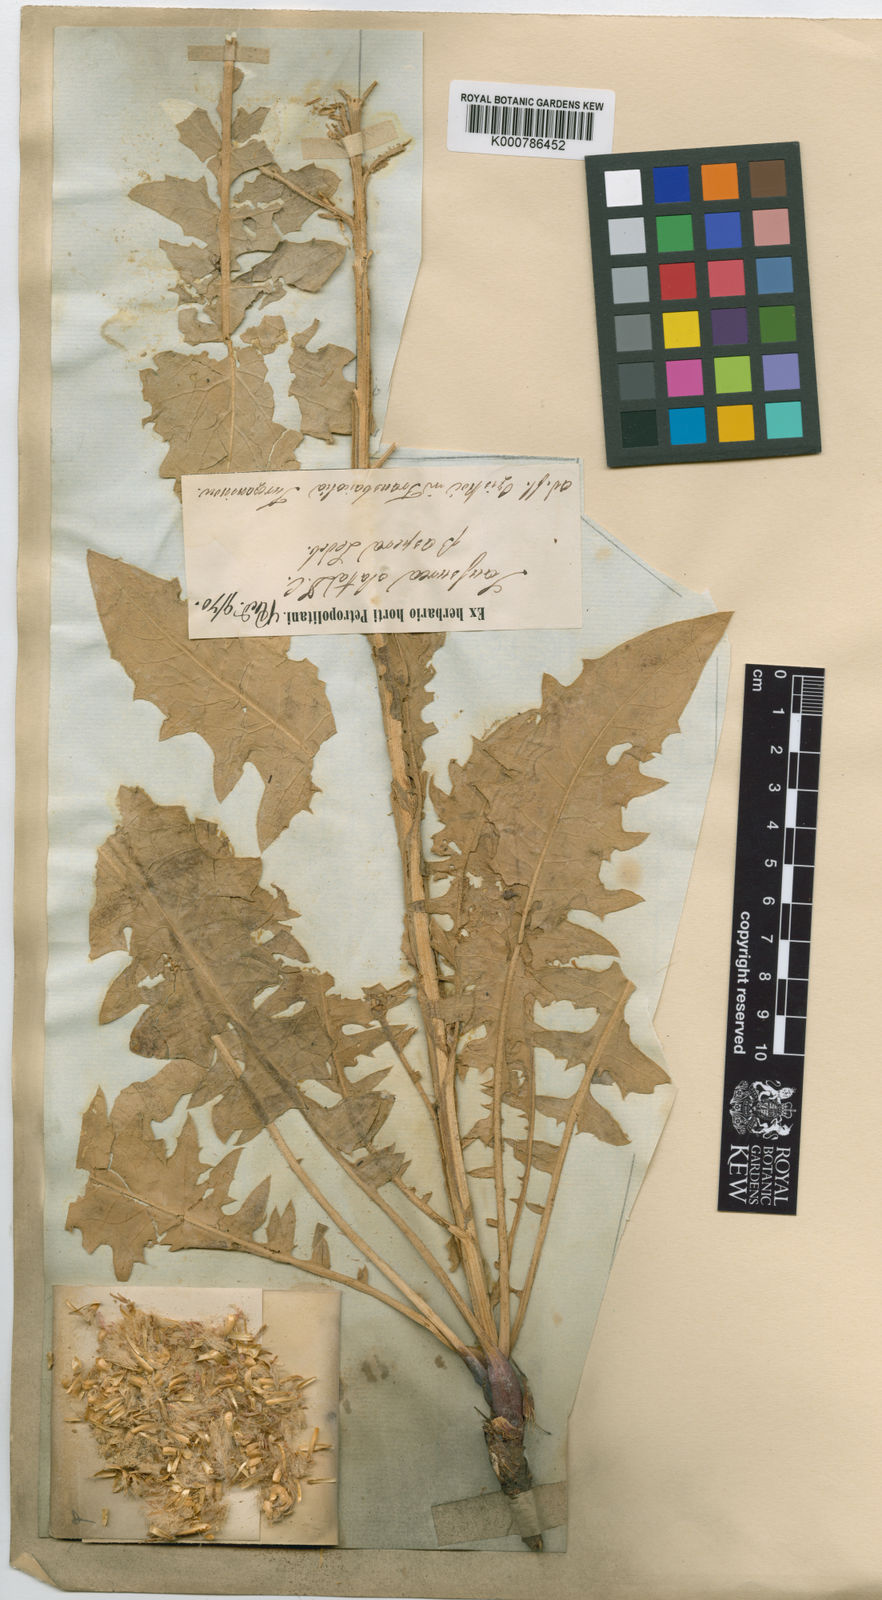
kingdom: Plantae
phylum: Tracheophyta
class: Magnoliopsida
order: Asterales
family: Asteraceae
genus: Saussurea
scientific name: Saussurea alata
